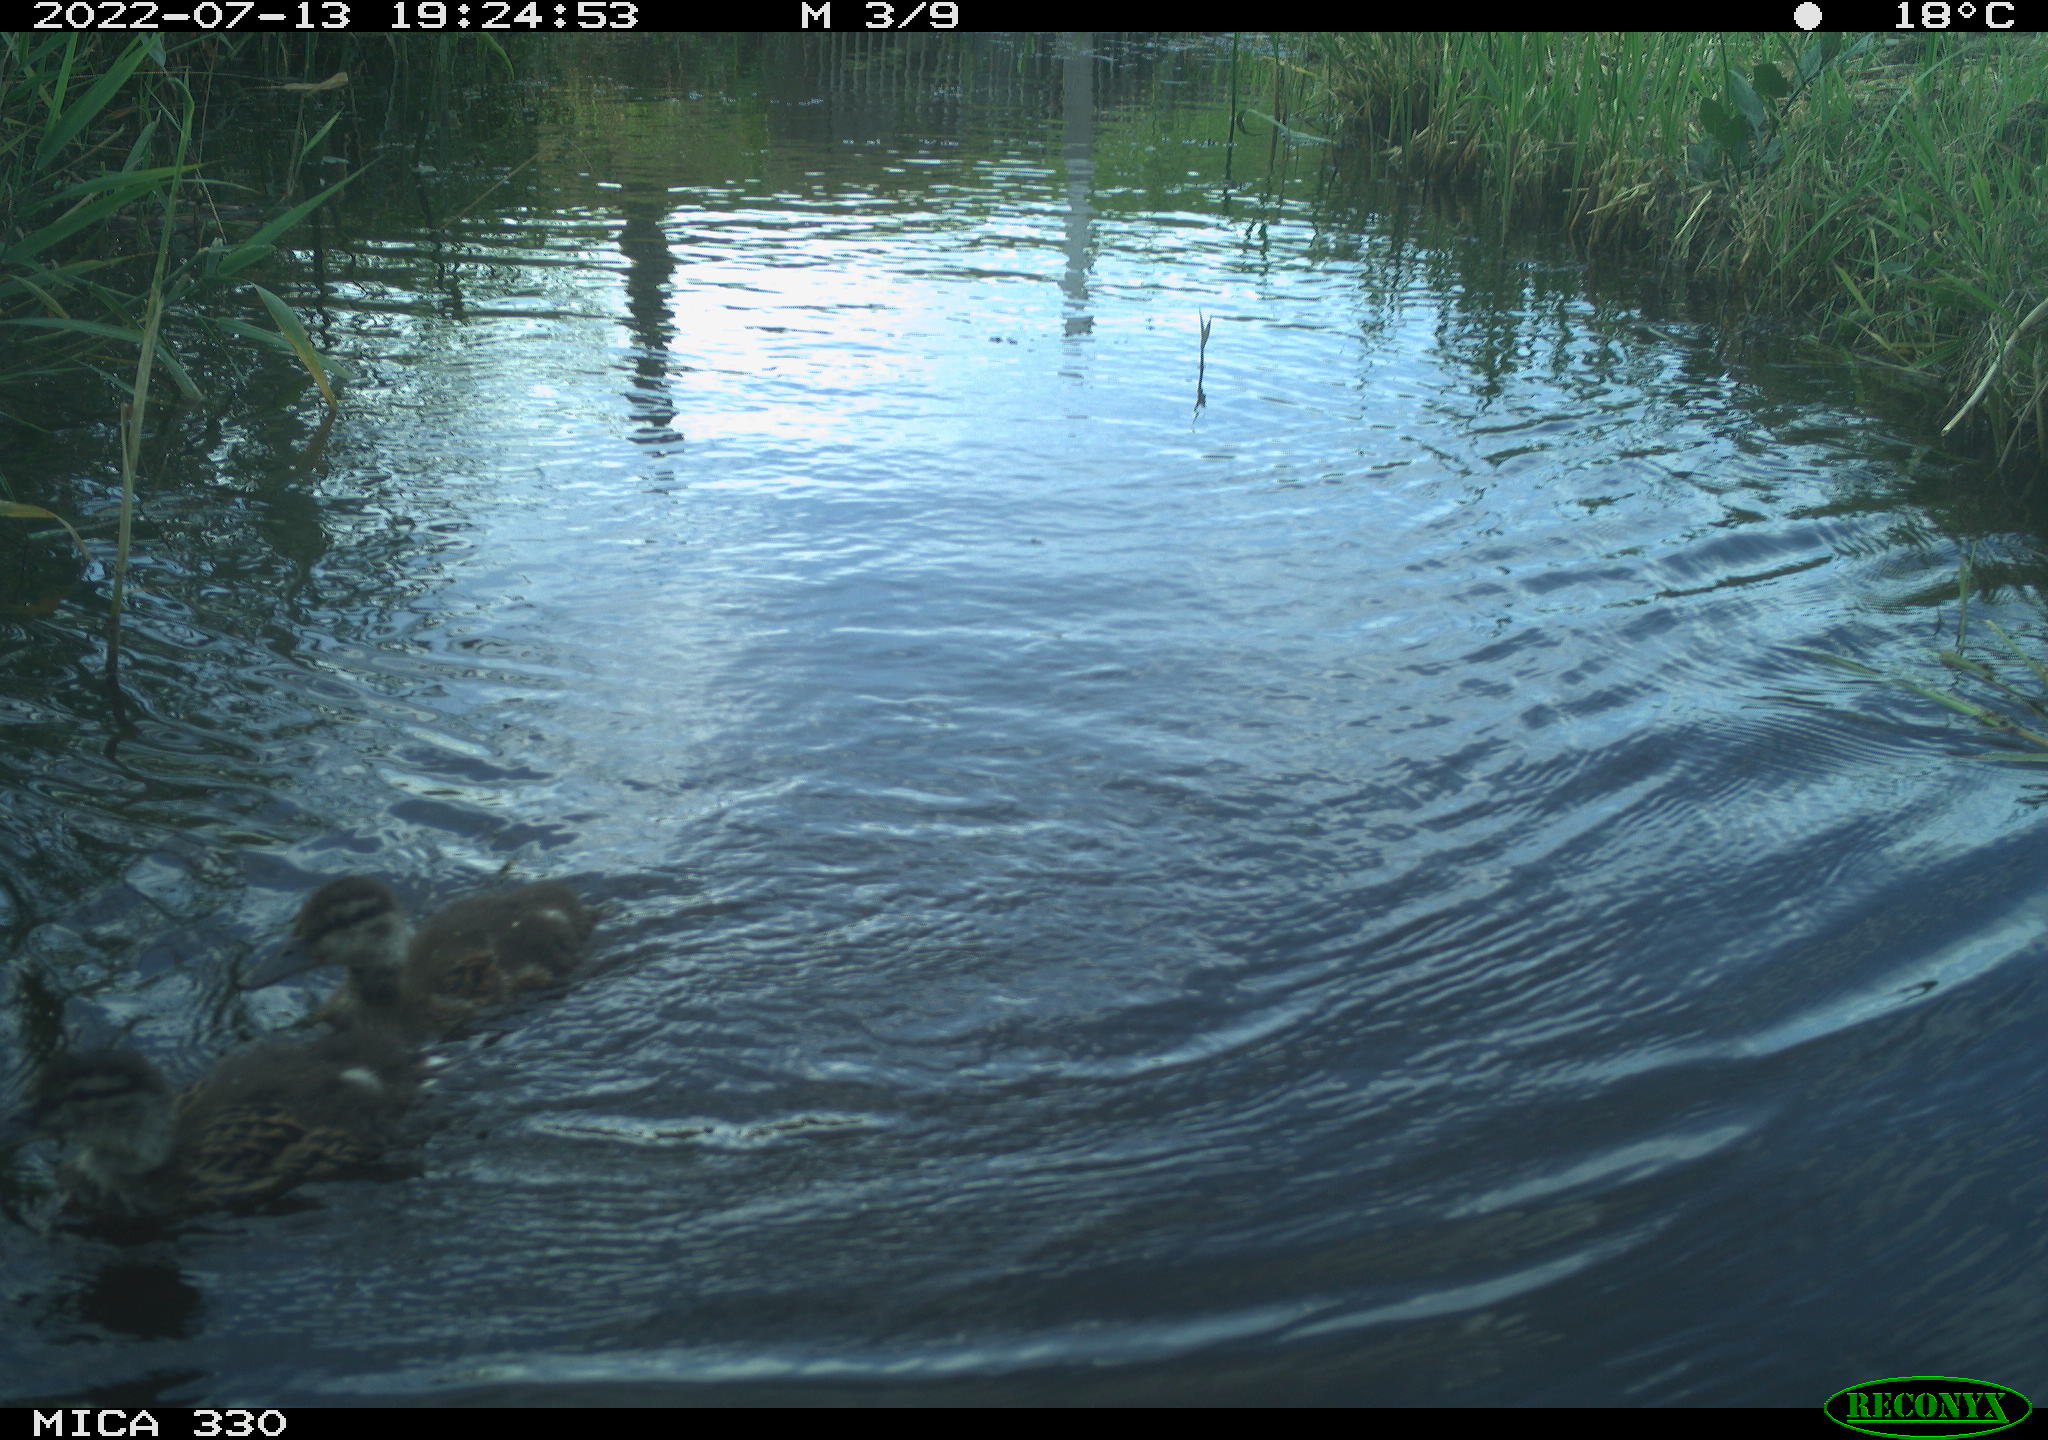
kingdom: Animalia
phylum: Chordata
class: Aves
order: Anseriformes
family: Anatidae
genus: Mareca
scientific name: Mareca strepera
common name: Gadwall
